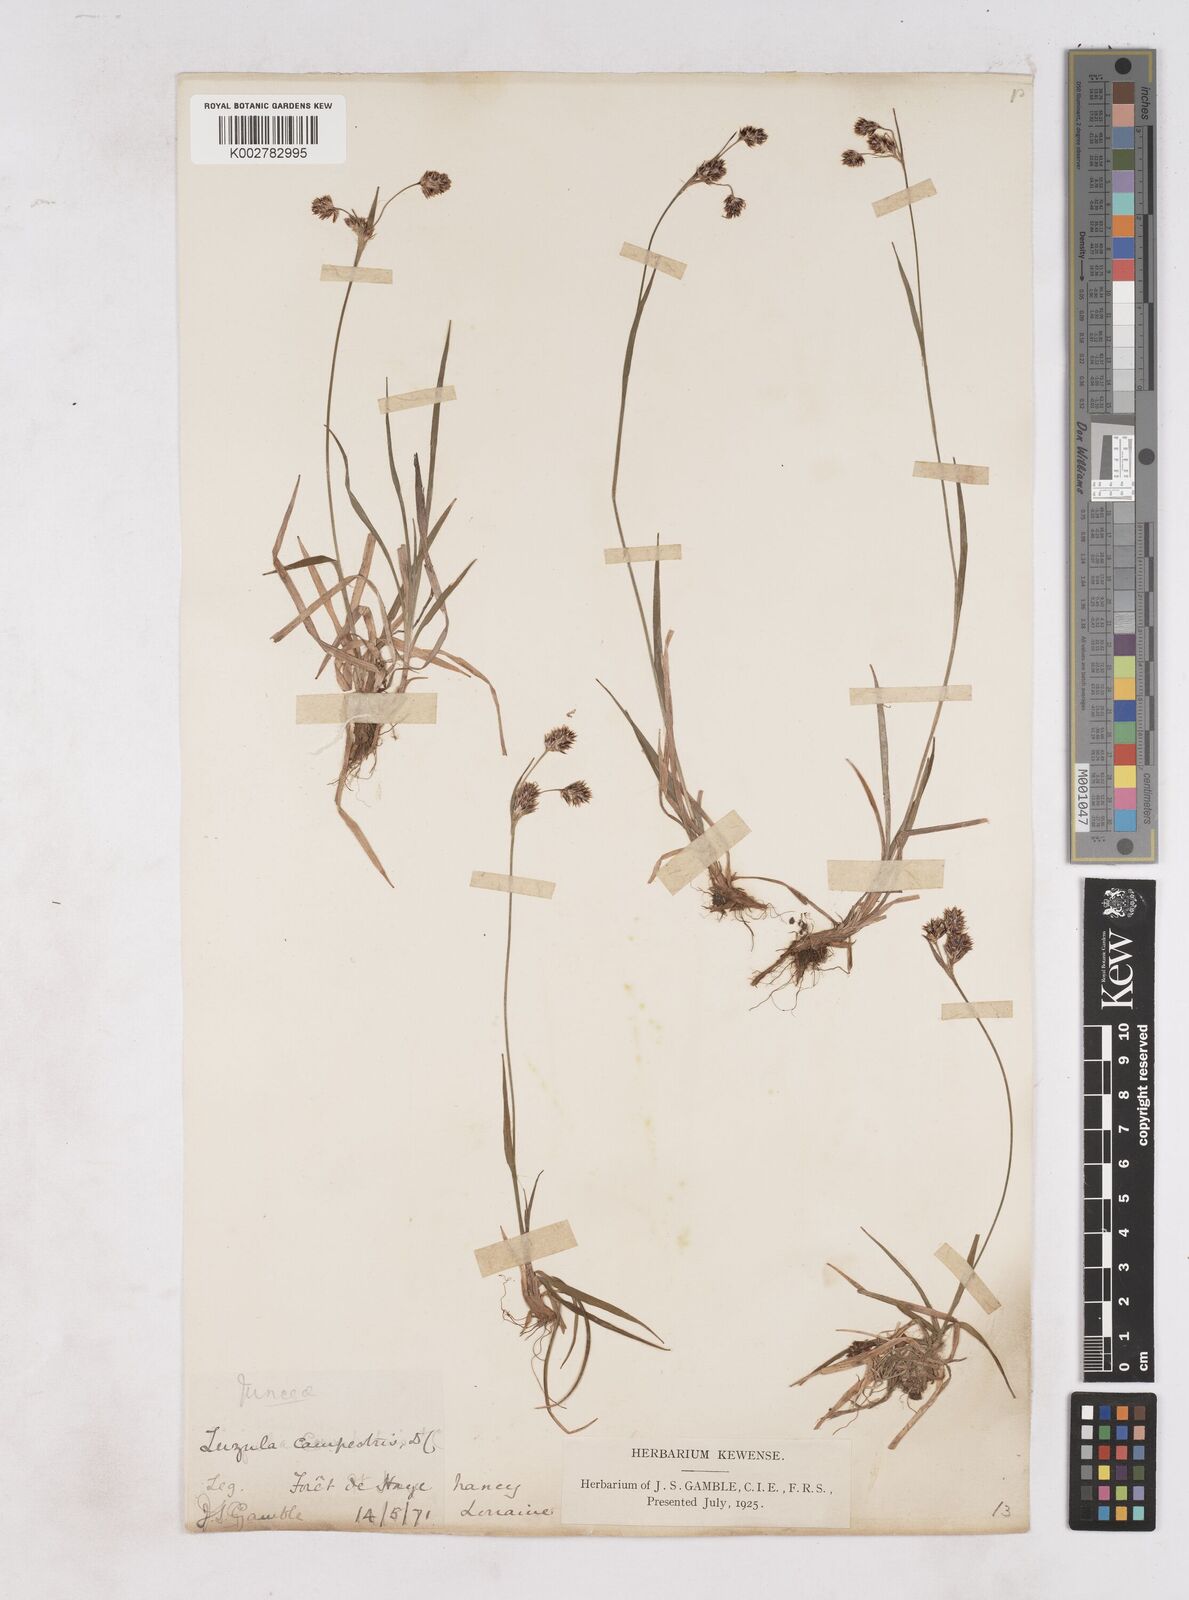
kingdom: Plantae
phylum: Tracheophyta
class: Liliopsida
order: Poales
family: Juncaceae
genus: Luzula
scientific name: Luzula campestris
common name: Field wood-rush
